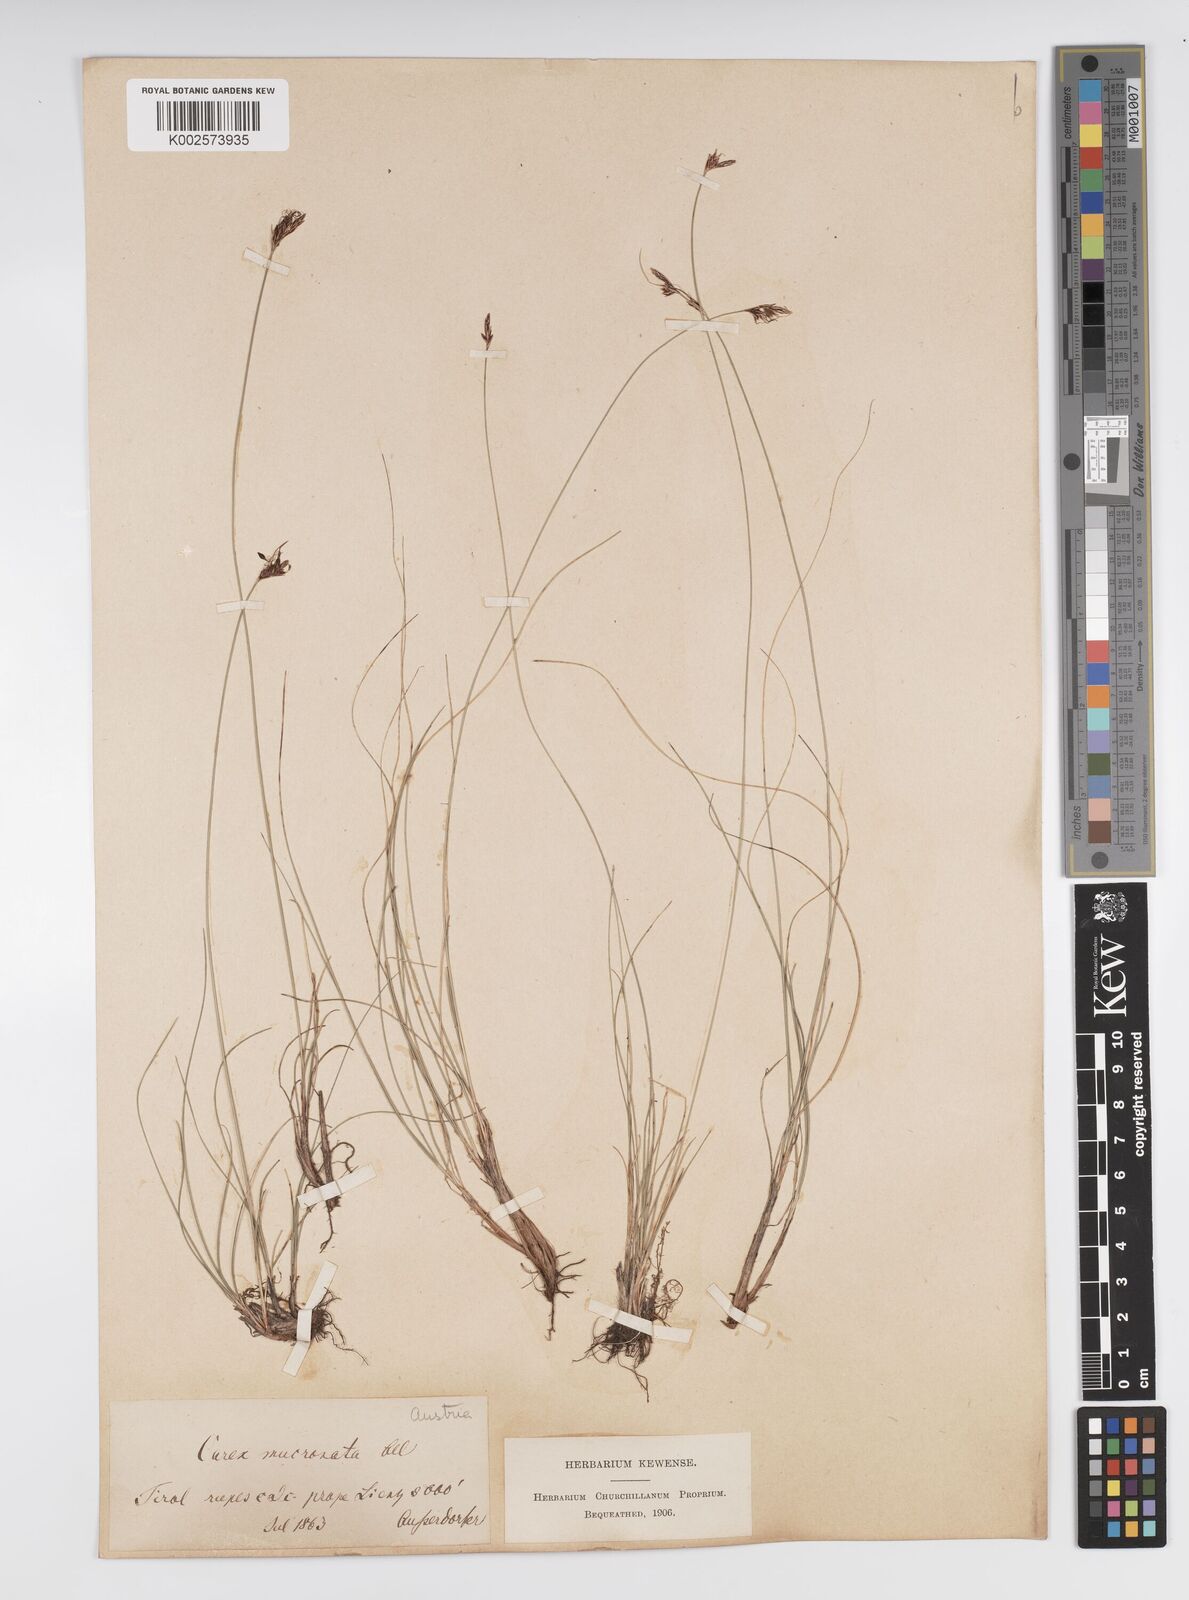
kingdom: Plantae
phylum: Tracheophyta
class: Liliopsida
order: Poales
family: Cyperaceae
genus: Carex
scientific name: Carex mucronata
